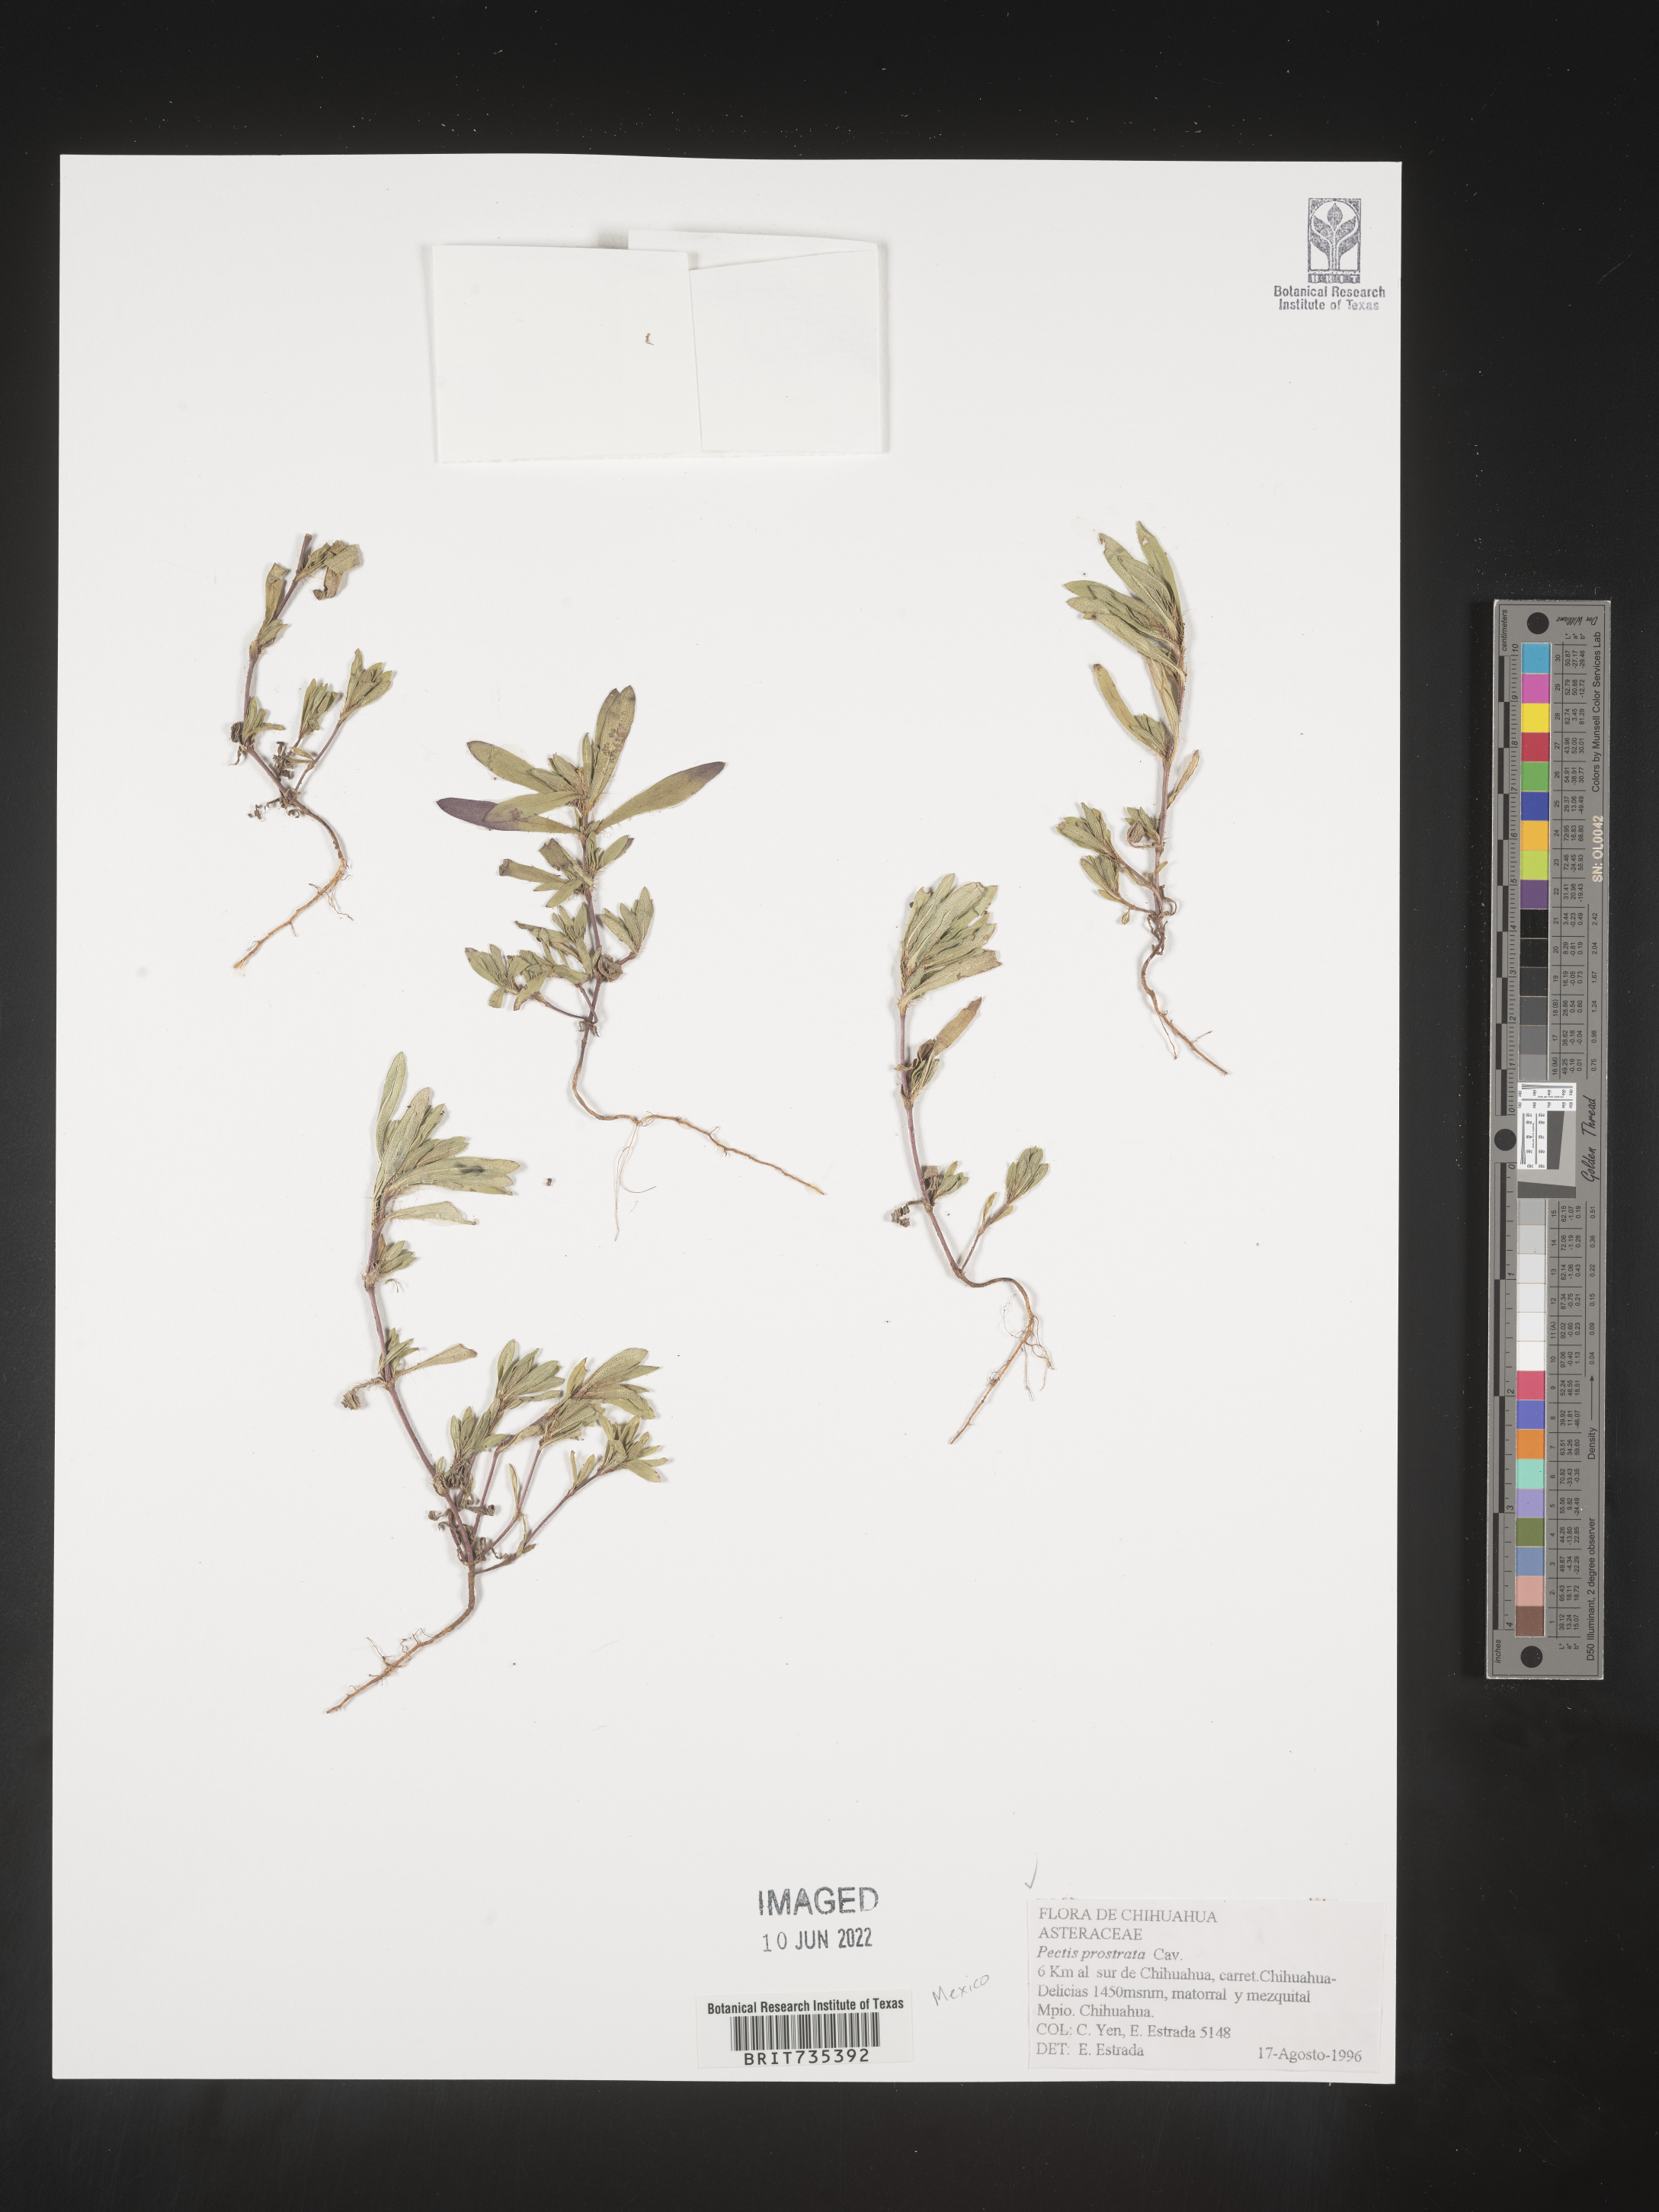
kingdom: Plantae
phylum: Tracheophyta
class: Magnoliopsida
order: Asterales
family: Asteraceae
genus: Pectis
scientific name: Pectis
